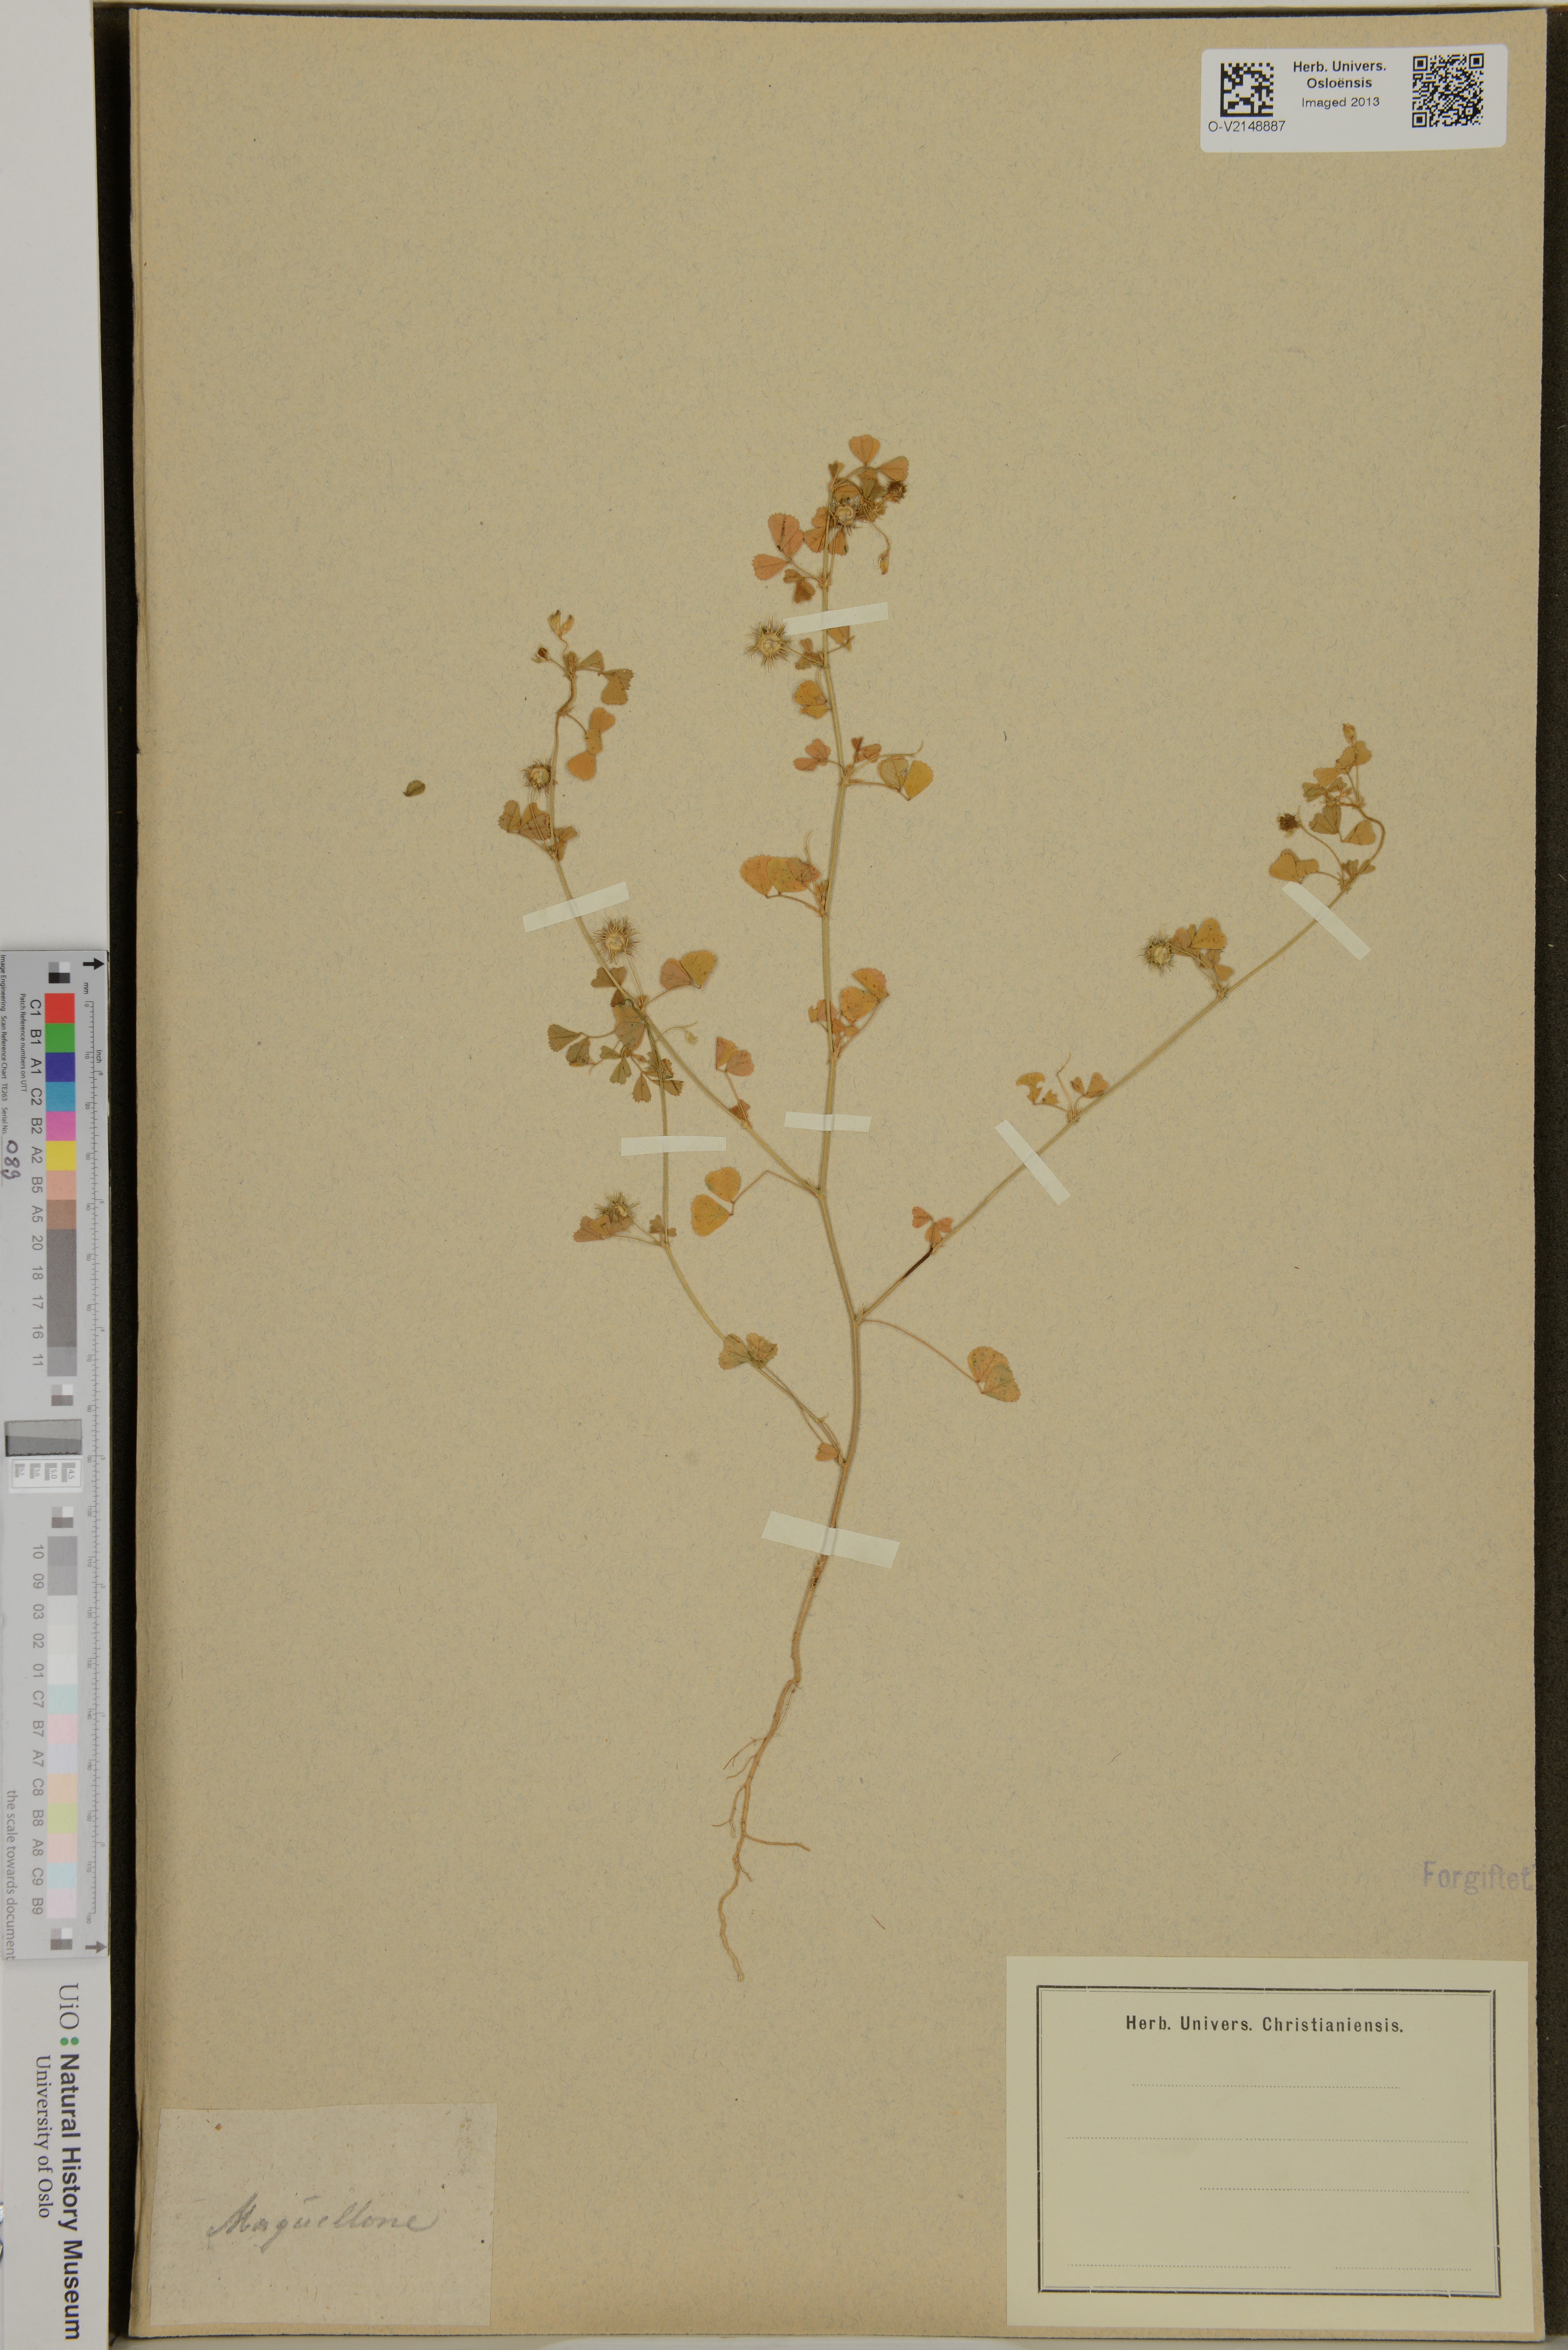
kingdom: Plantae
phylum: Tracheophyta
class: Magnoliopsida
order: Fabales
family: Fabaceae
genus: Medicago
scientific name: Medicago
